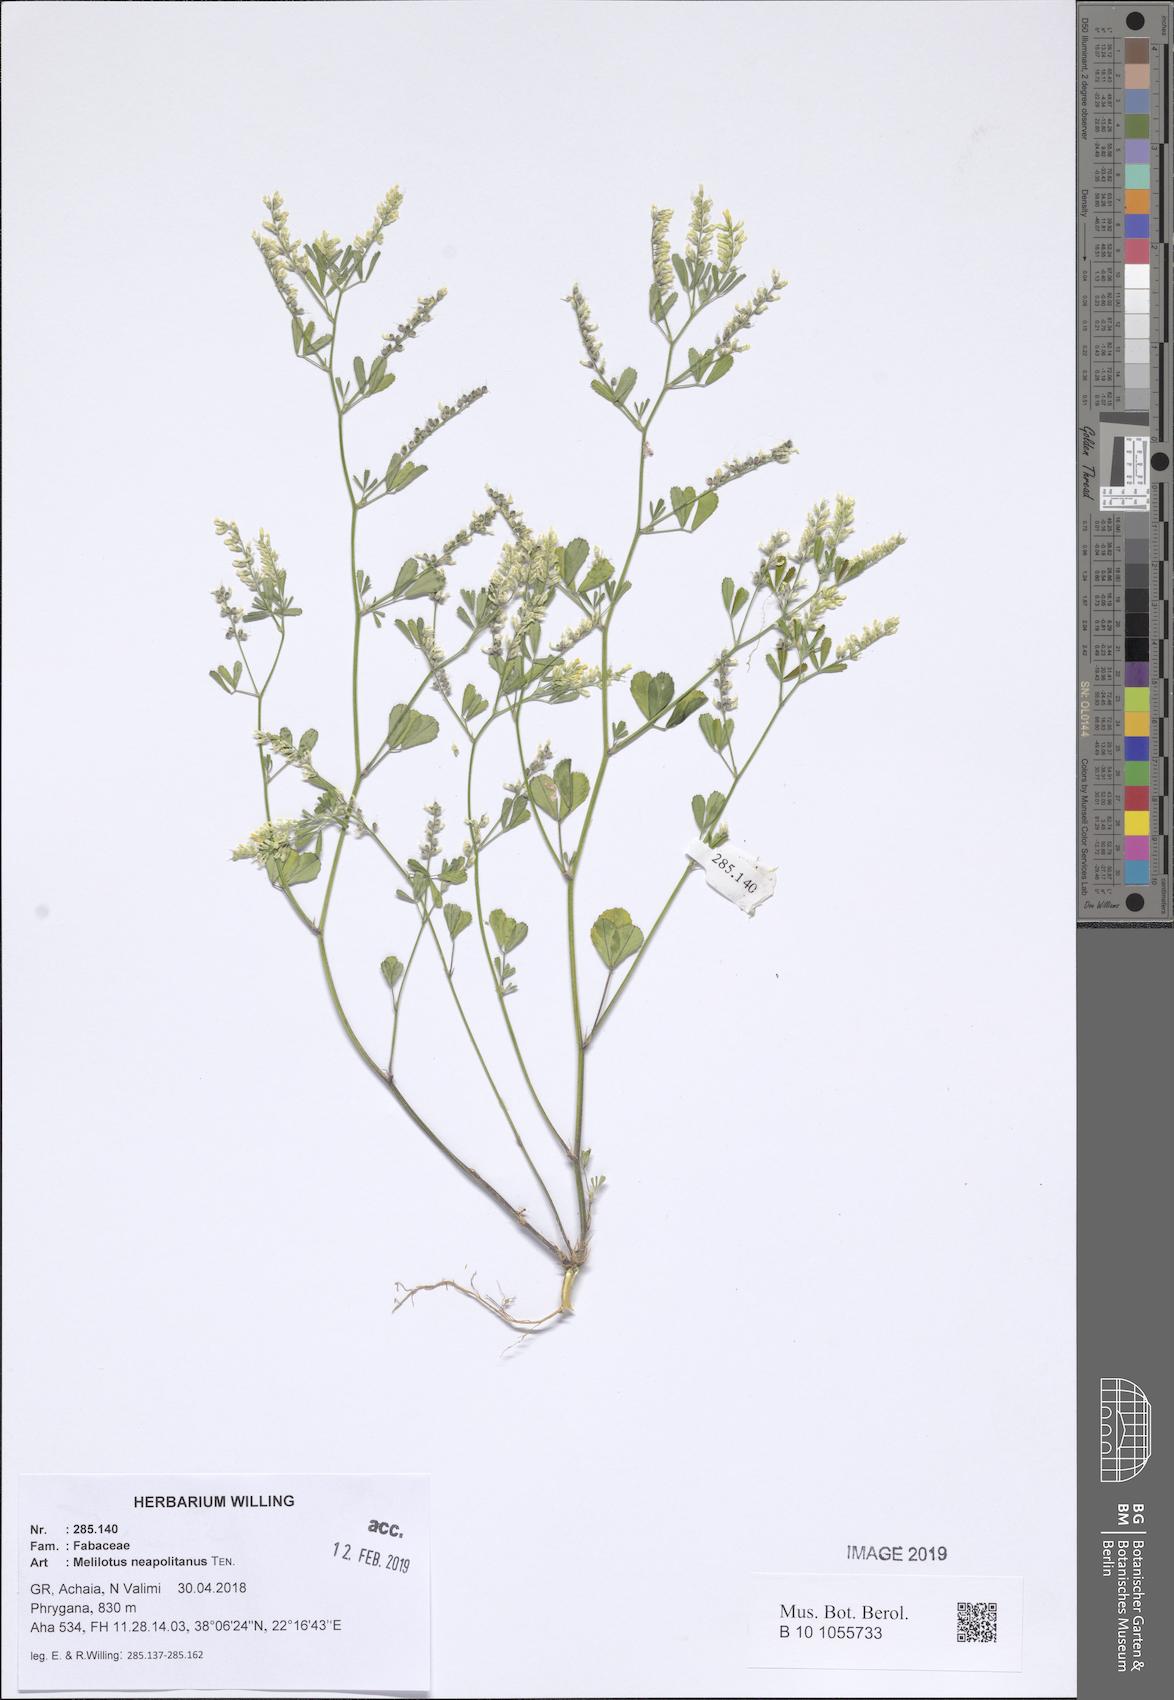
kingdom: Plantae
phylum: Tracheophyta
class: Magnoliopsida
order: Fabales
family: Fabaceae
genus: Melilotus
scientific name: Melilotus neapolitanus
